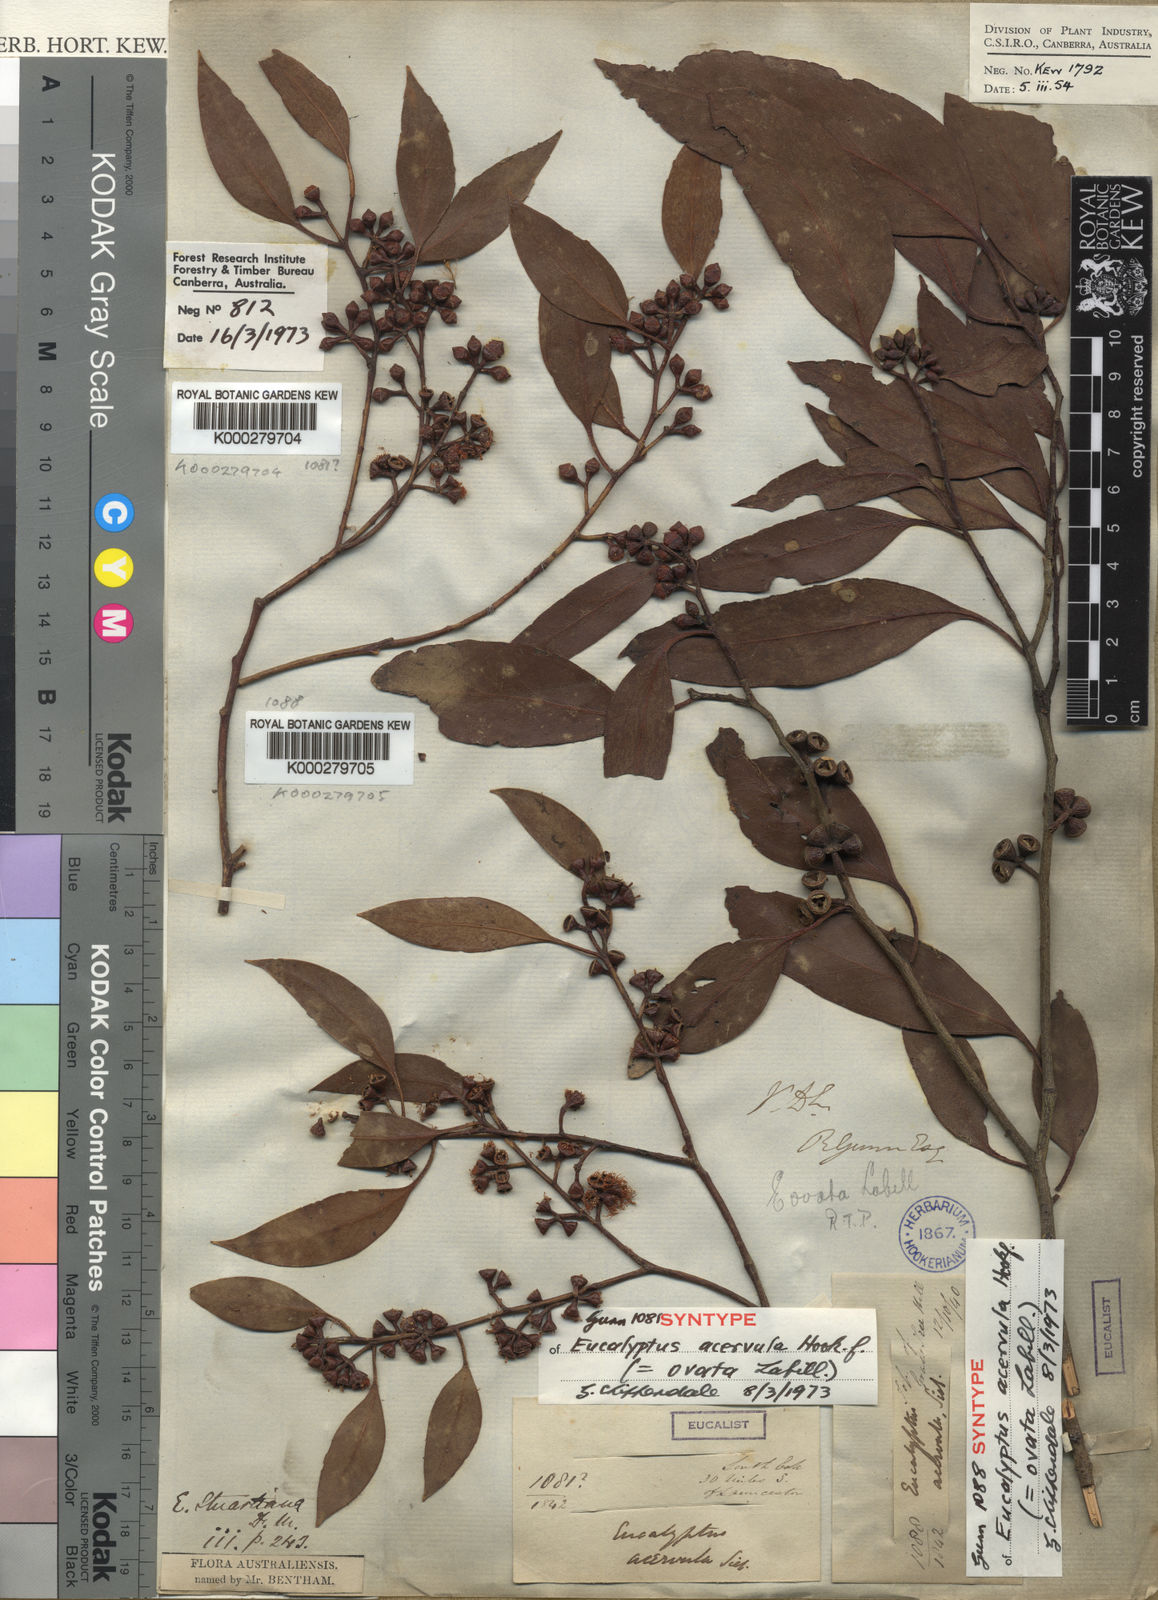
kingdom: Plantae
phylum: Tracheophyta
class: Magnoliopsida
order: Myrtales
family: Myrtaceae
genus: Eucalyptus
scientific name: Eucalyptus ovata
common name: Black-gum
